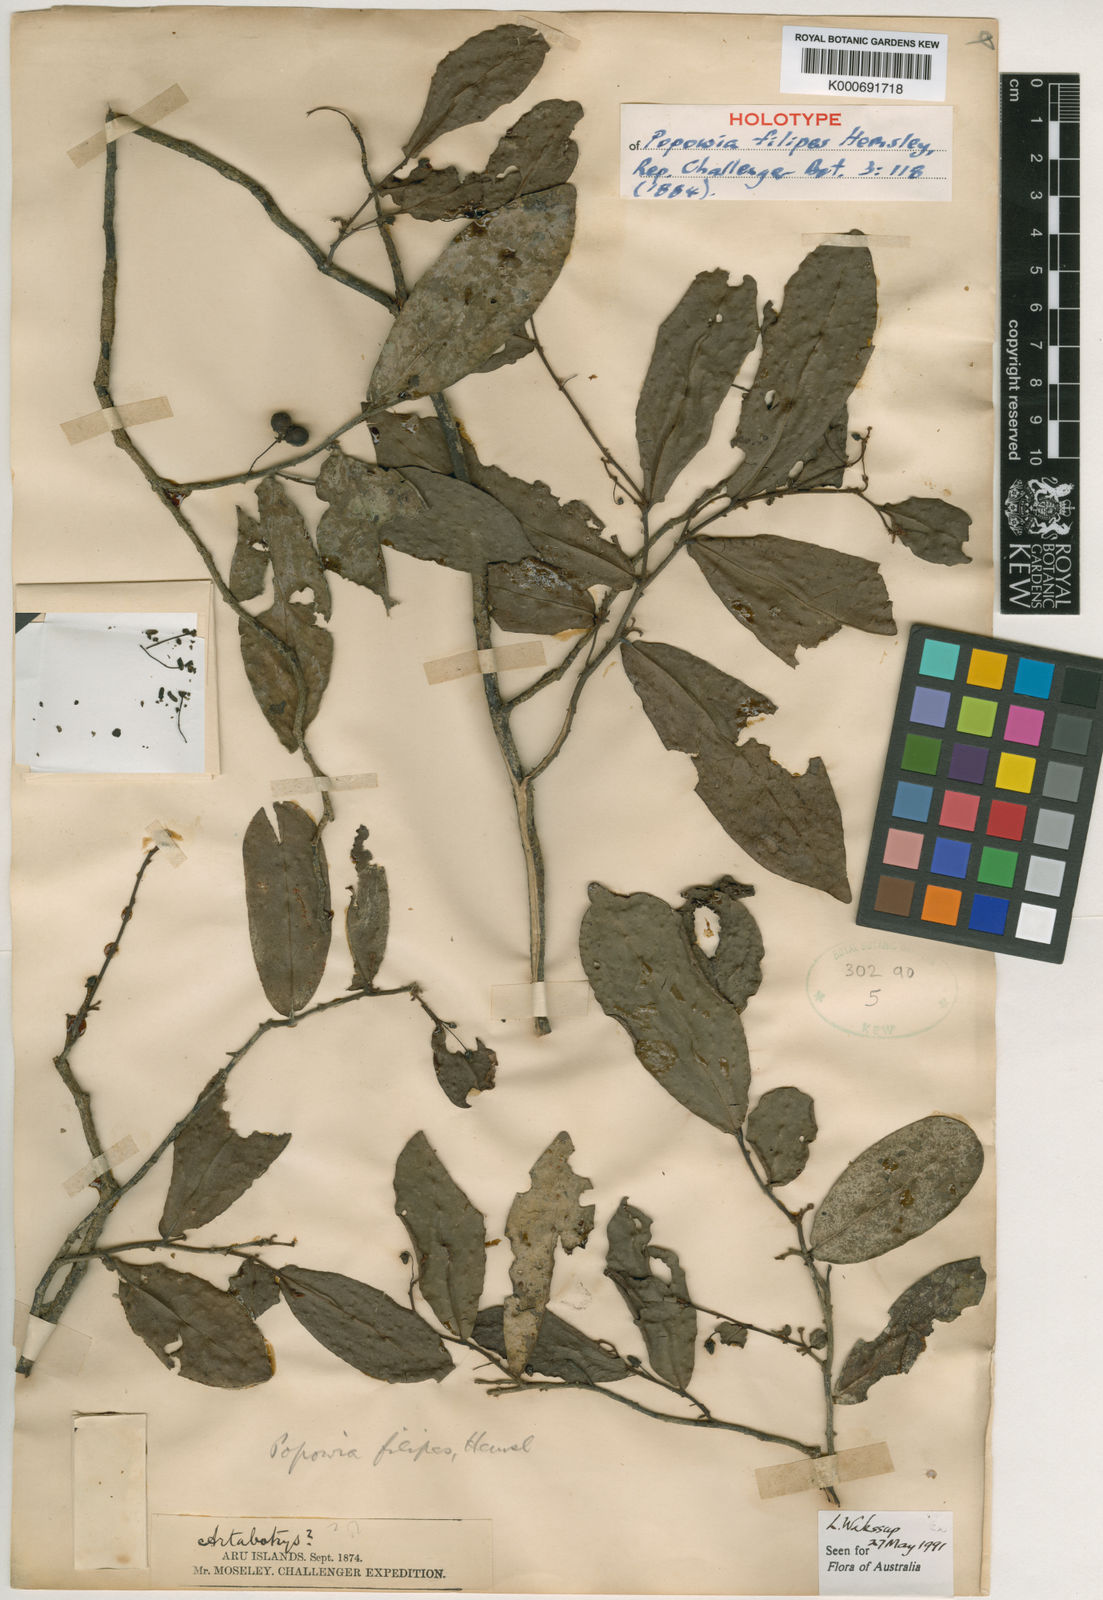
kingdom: Plantae
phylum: Tracheophyta
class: Magnoliopsida
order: Magnoliales
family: Annonaceae
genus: Popowia
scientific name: Popowia filipes
